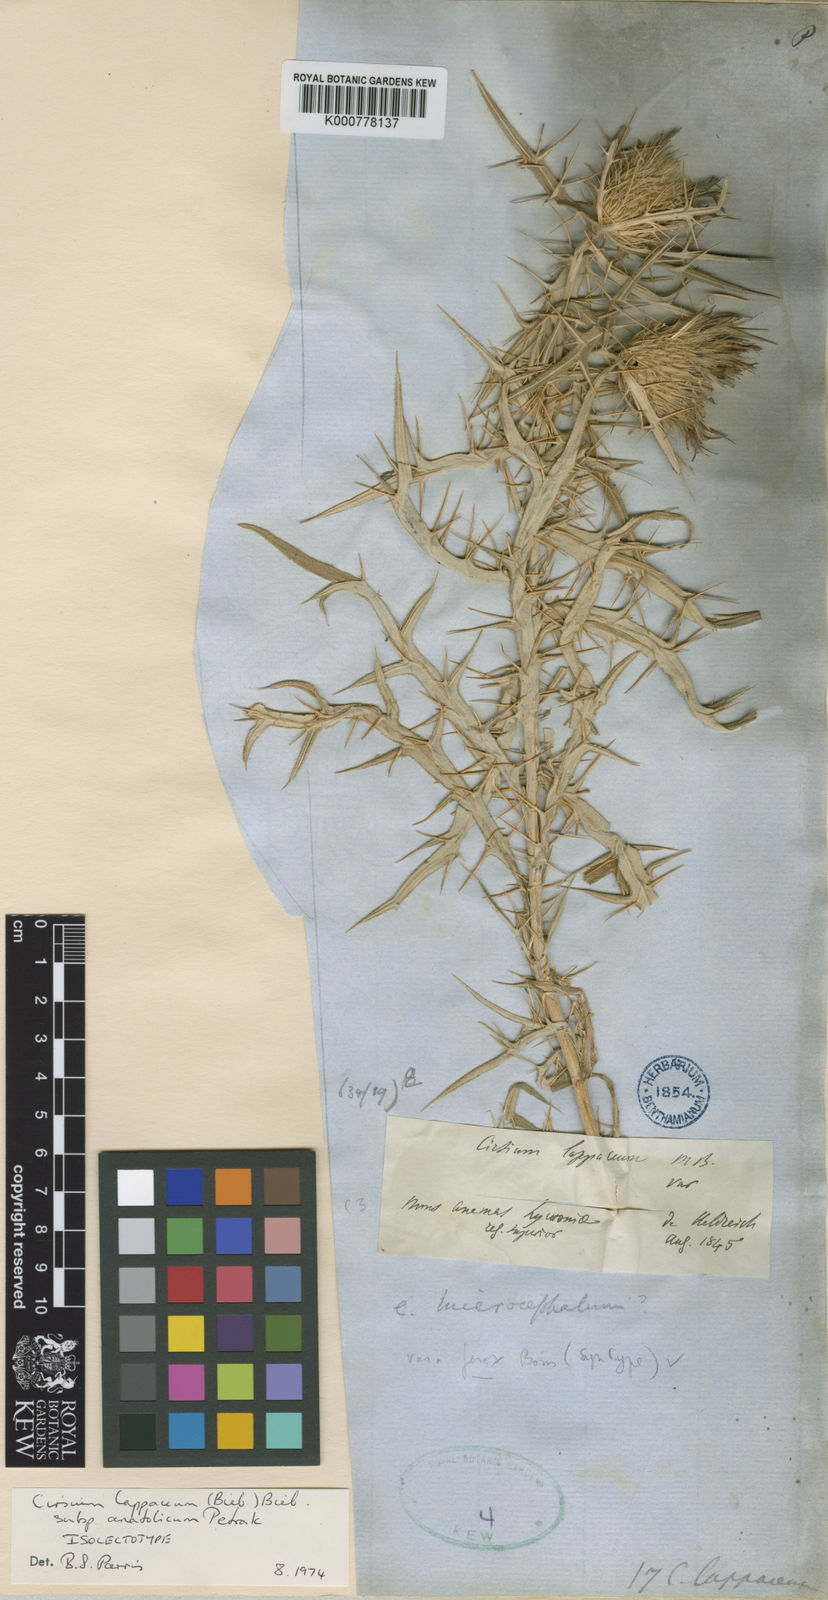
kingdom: Plantae
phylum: Tracheophyta
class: Magnoliopsida
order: Asterales
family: Asteraceae
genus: Lophiolepis
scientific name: Lophiolepis lappacea
